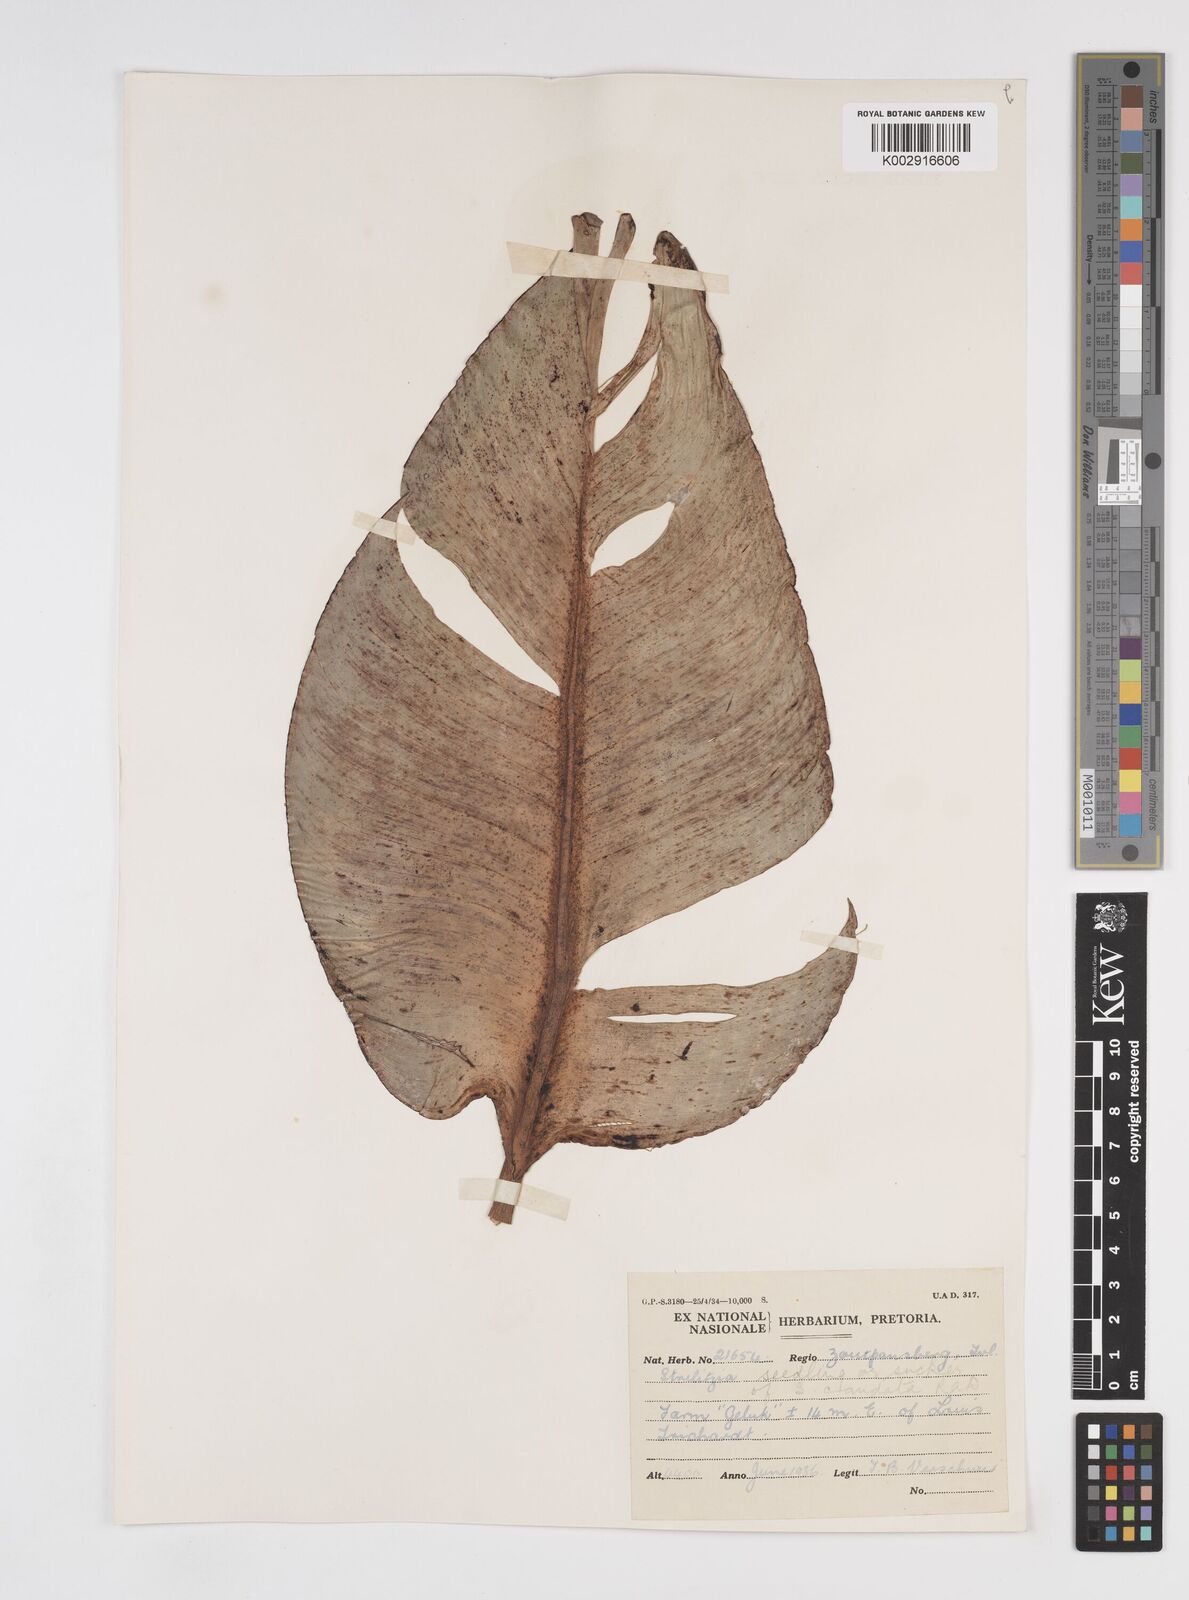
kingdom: Plantae
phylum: Tracheophyta
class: Liliopsida
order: Zingiberales
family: Strelitziaceae
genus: Strelitzia
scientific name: Strelitzia caudata
